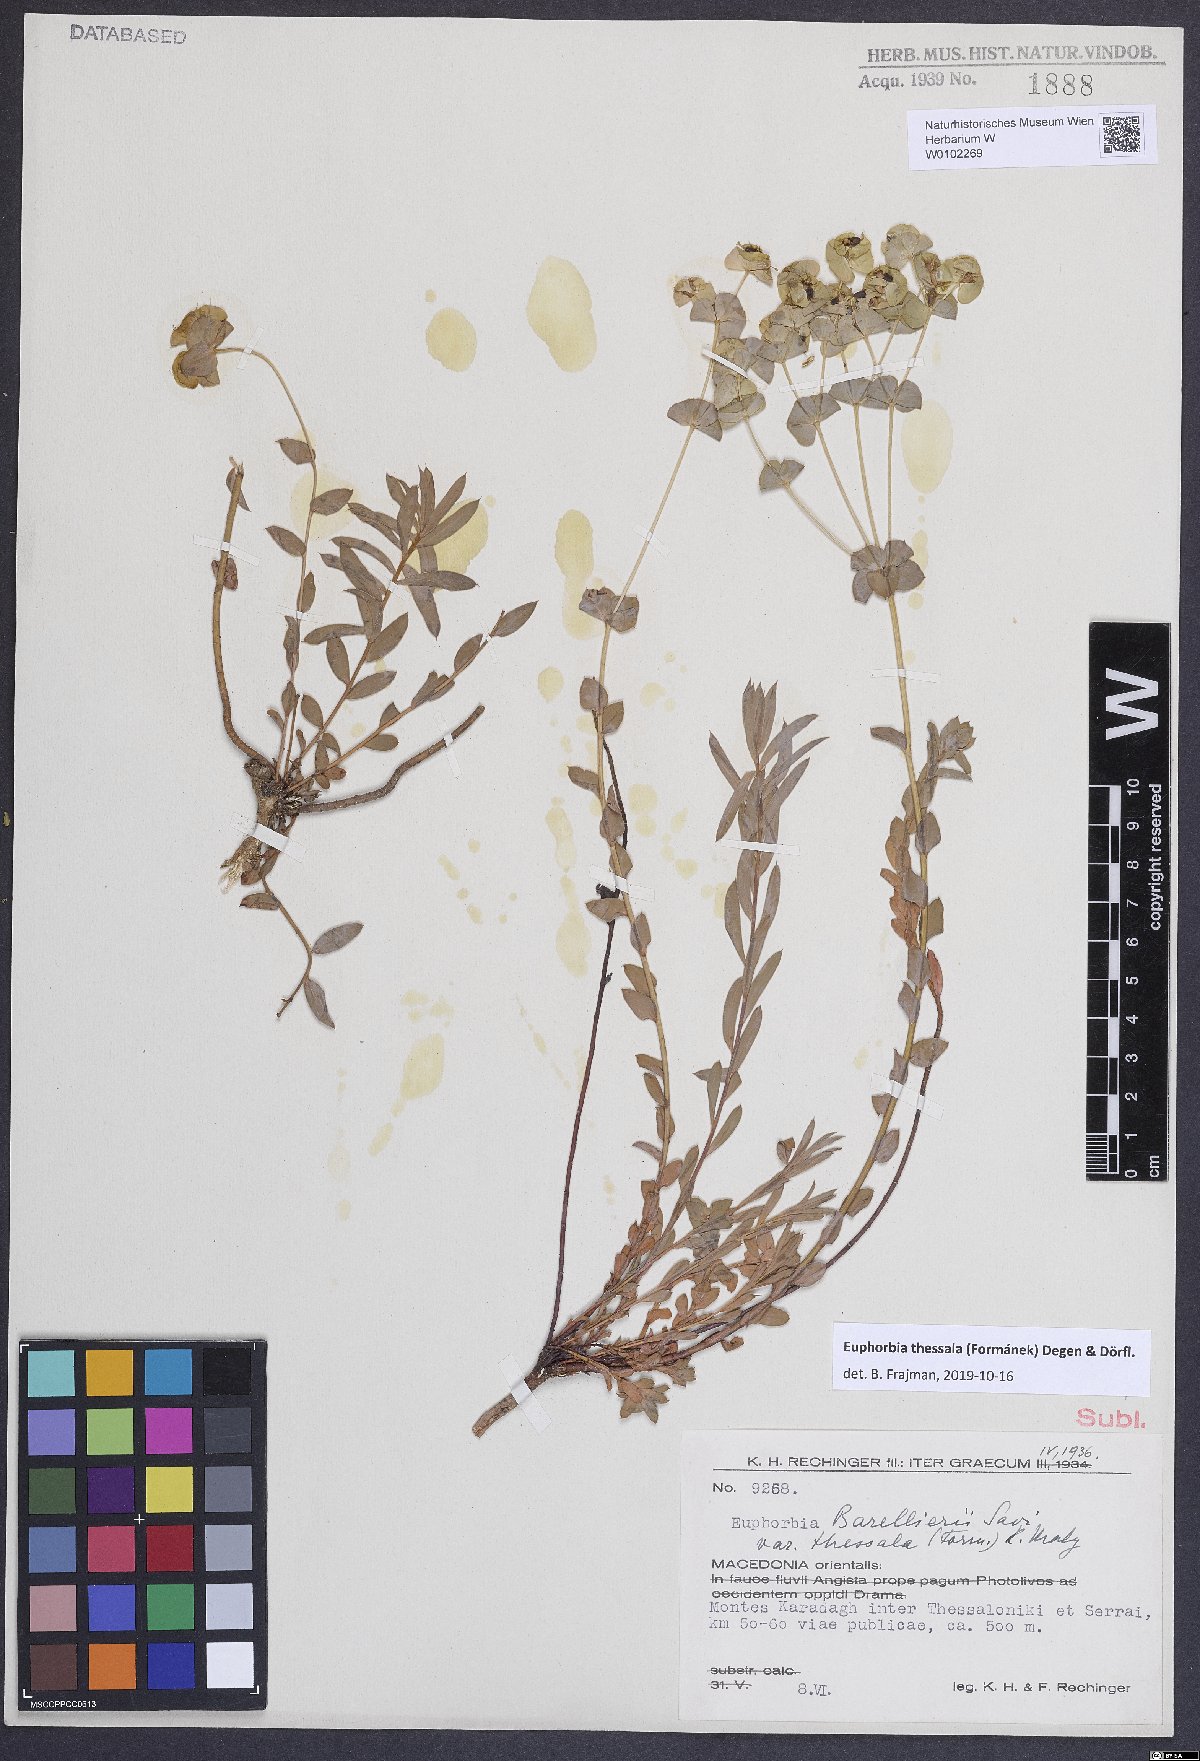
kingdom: Plantae
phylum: Tracheophyta
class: Magnoliopsida
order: Malpighiales
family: Euphorbiaceae
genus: Euphorbia
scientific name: Euphorbia barrelieri
